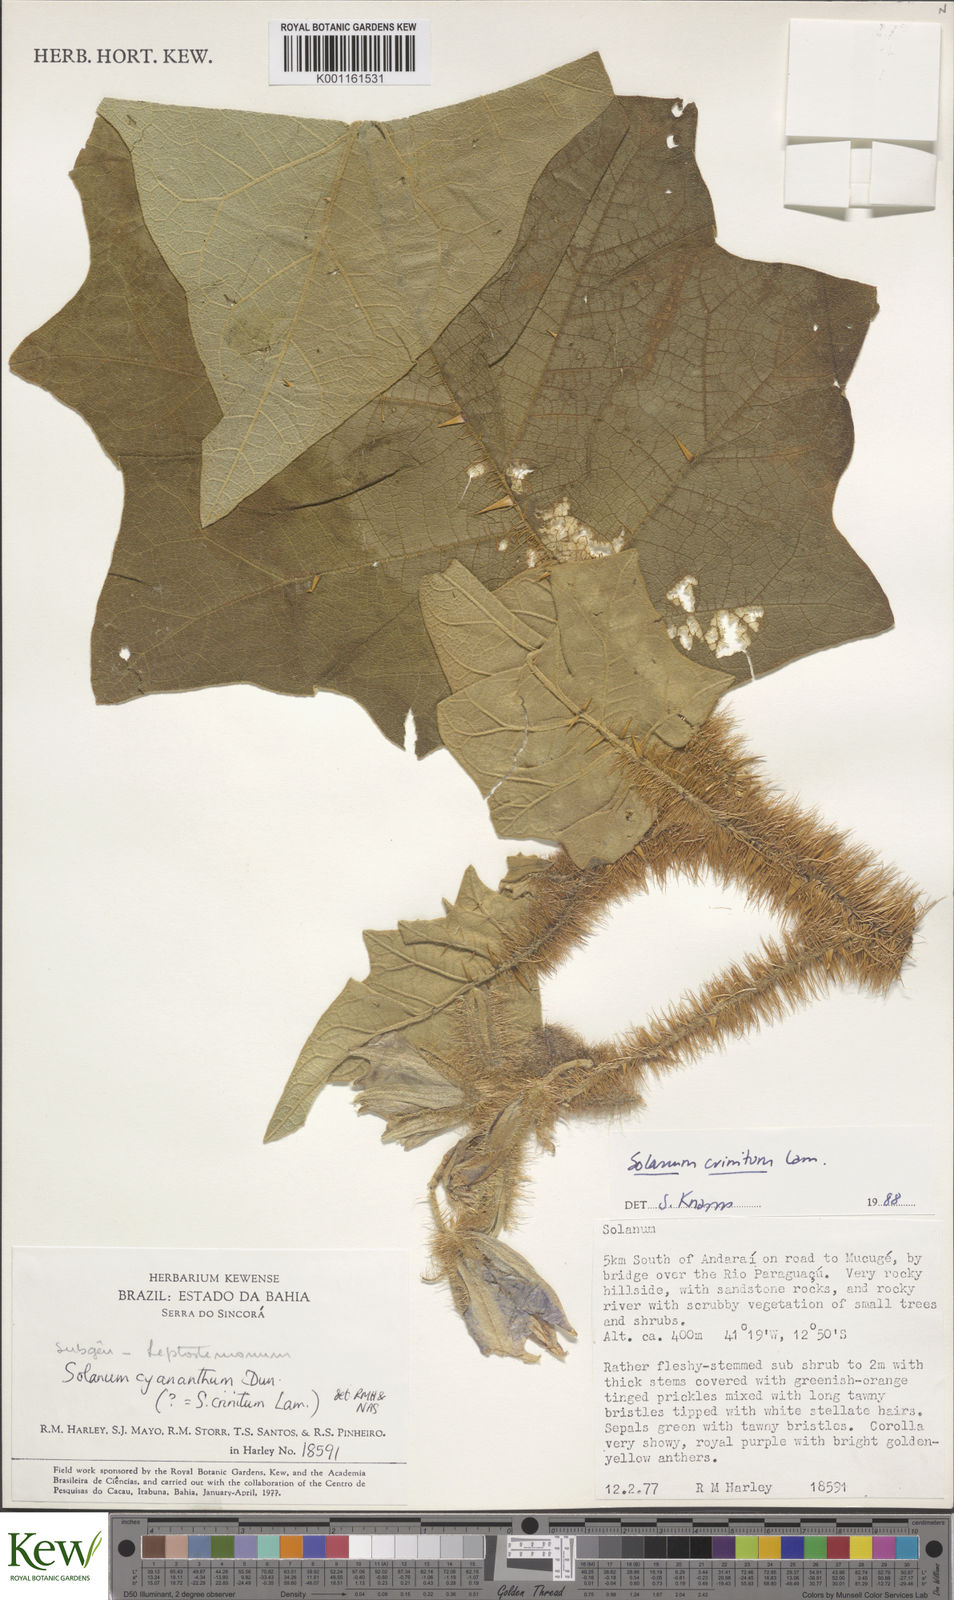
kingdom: Plantae
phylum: Tracheophyta
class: Magnoliopsida
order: Solanales
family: Solanaceae
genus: Solanum
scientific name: Solanum crinitum
